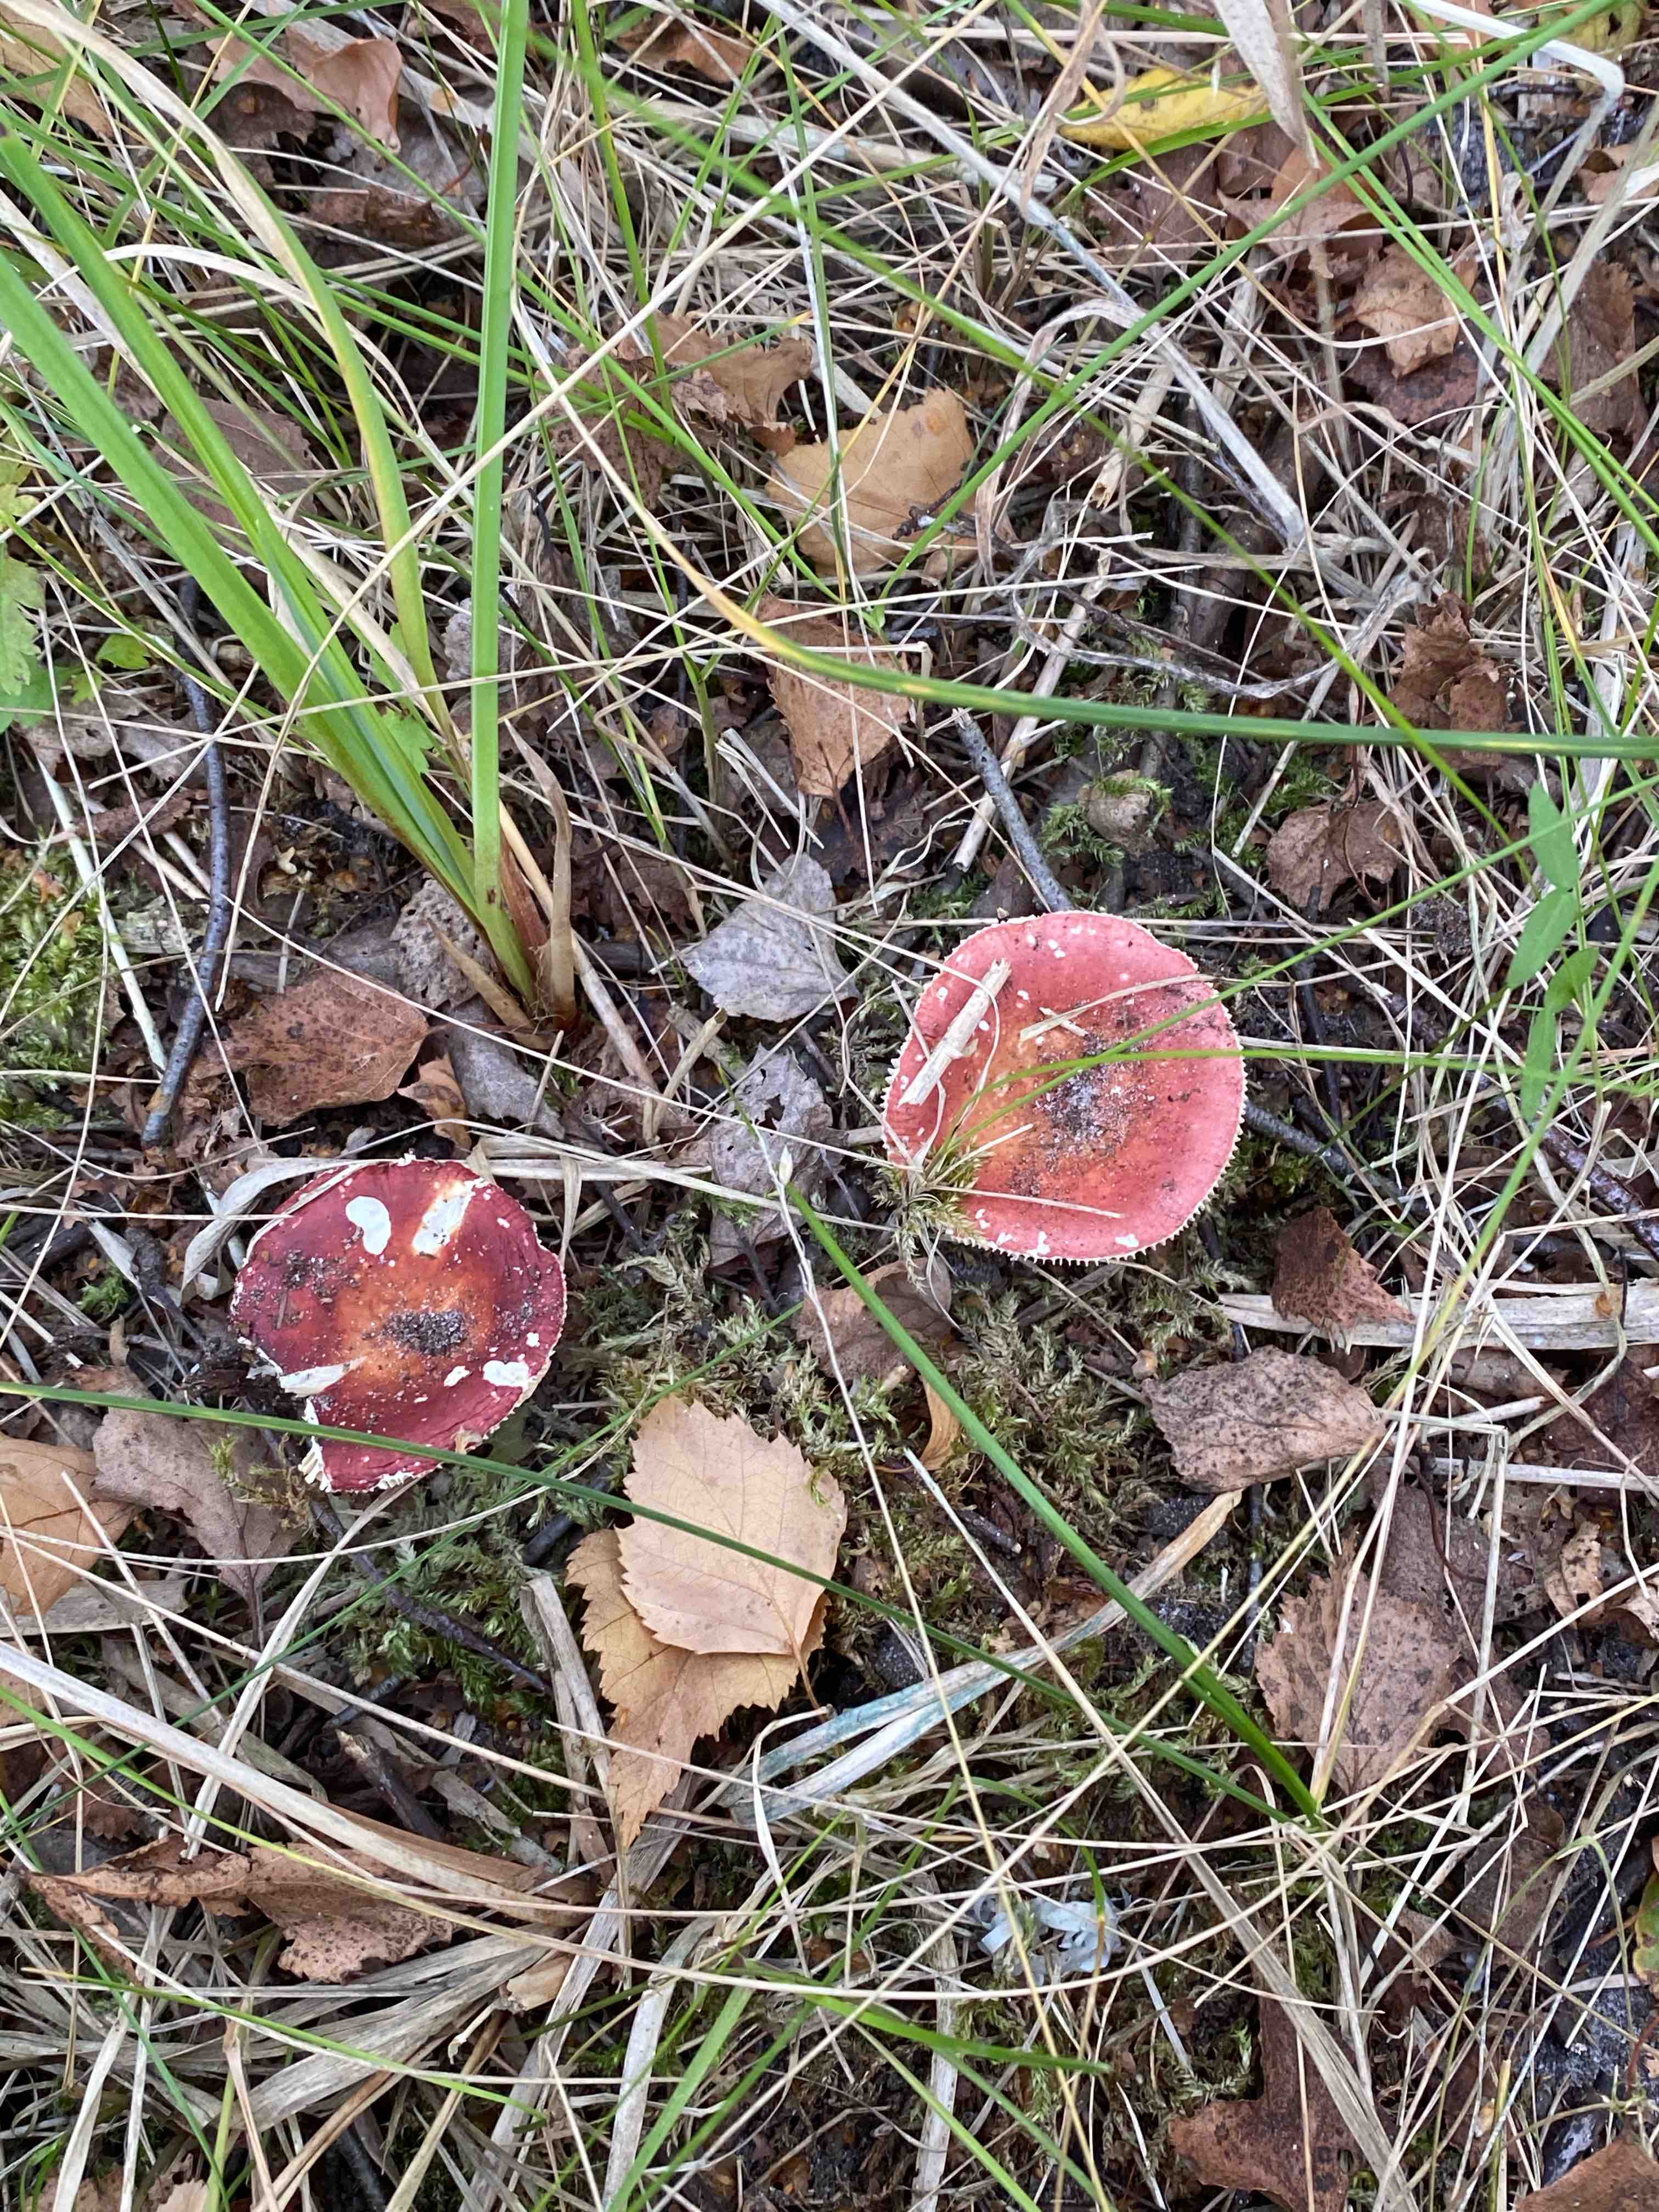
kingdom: Fungi
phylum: Basidiomycota
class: Agaricomycetes
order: Russulales
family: Russulaceae
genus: Russula
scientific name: Russula velenovskyi
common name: orangerød skørhat
